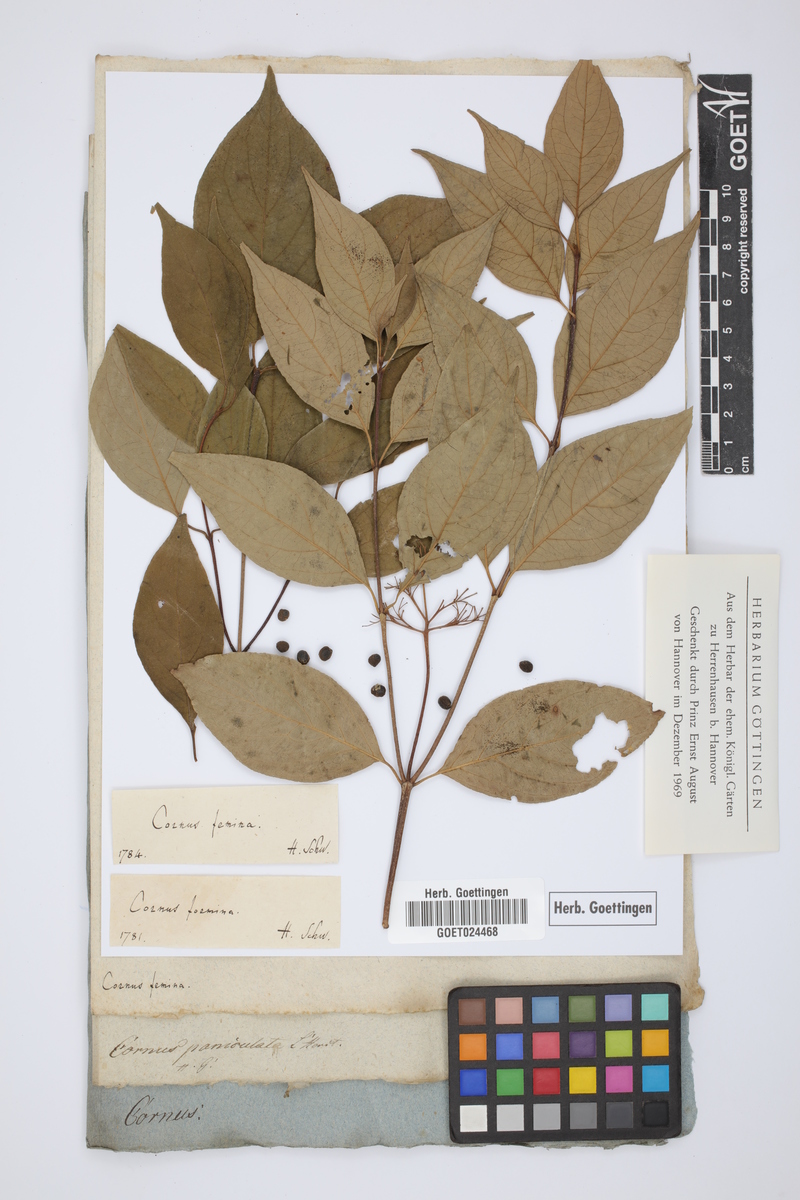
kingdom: Plantae
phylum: Tracheophyta
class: Magnoliopsida
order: Cornales
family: Cornaceae
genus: Cornus
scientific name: Cornus foemina
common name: Swamp dogwood
